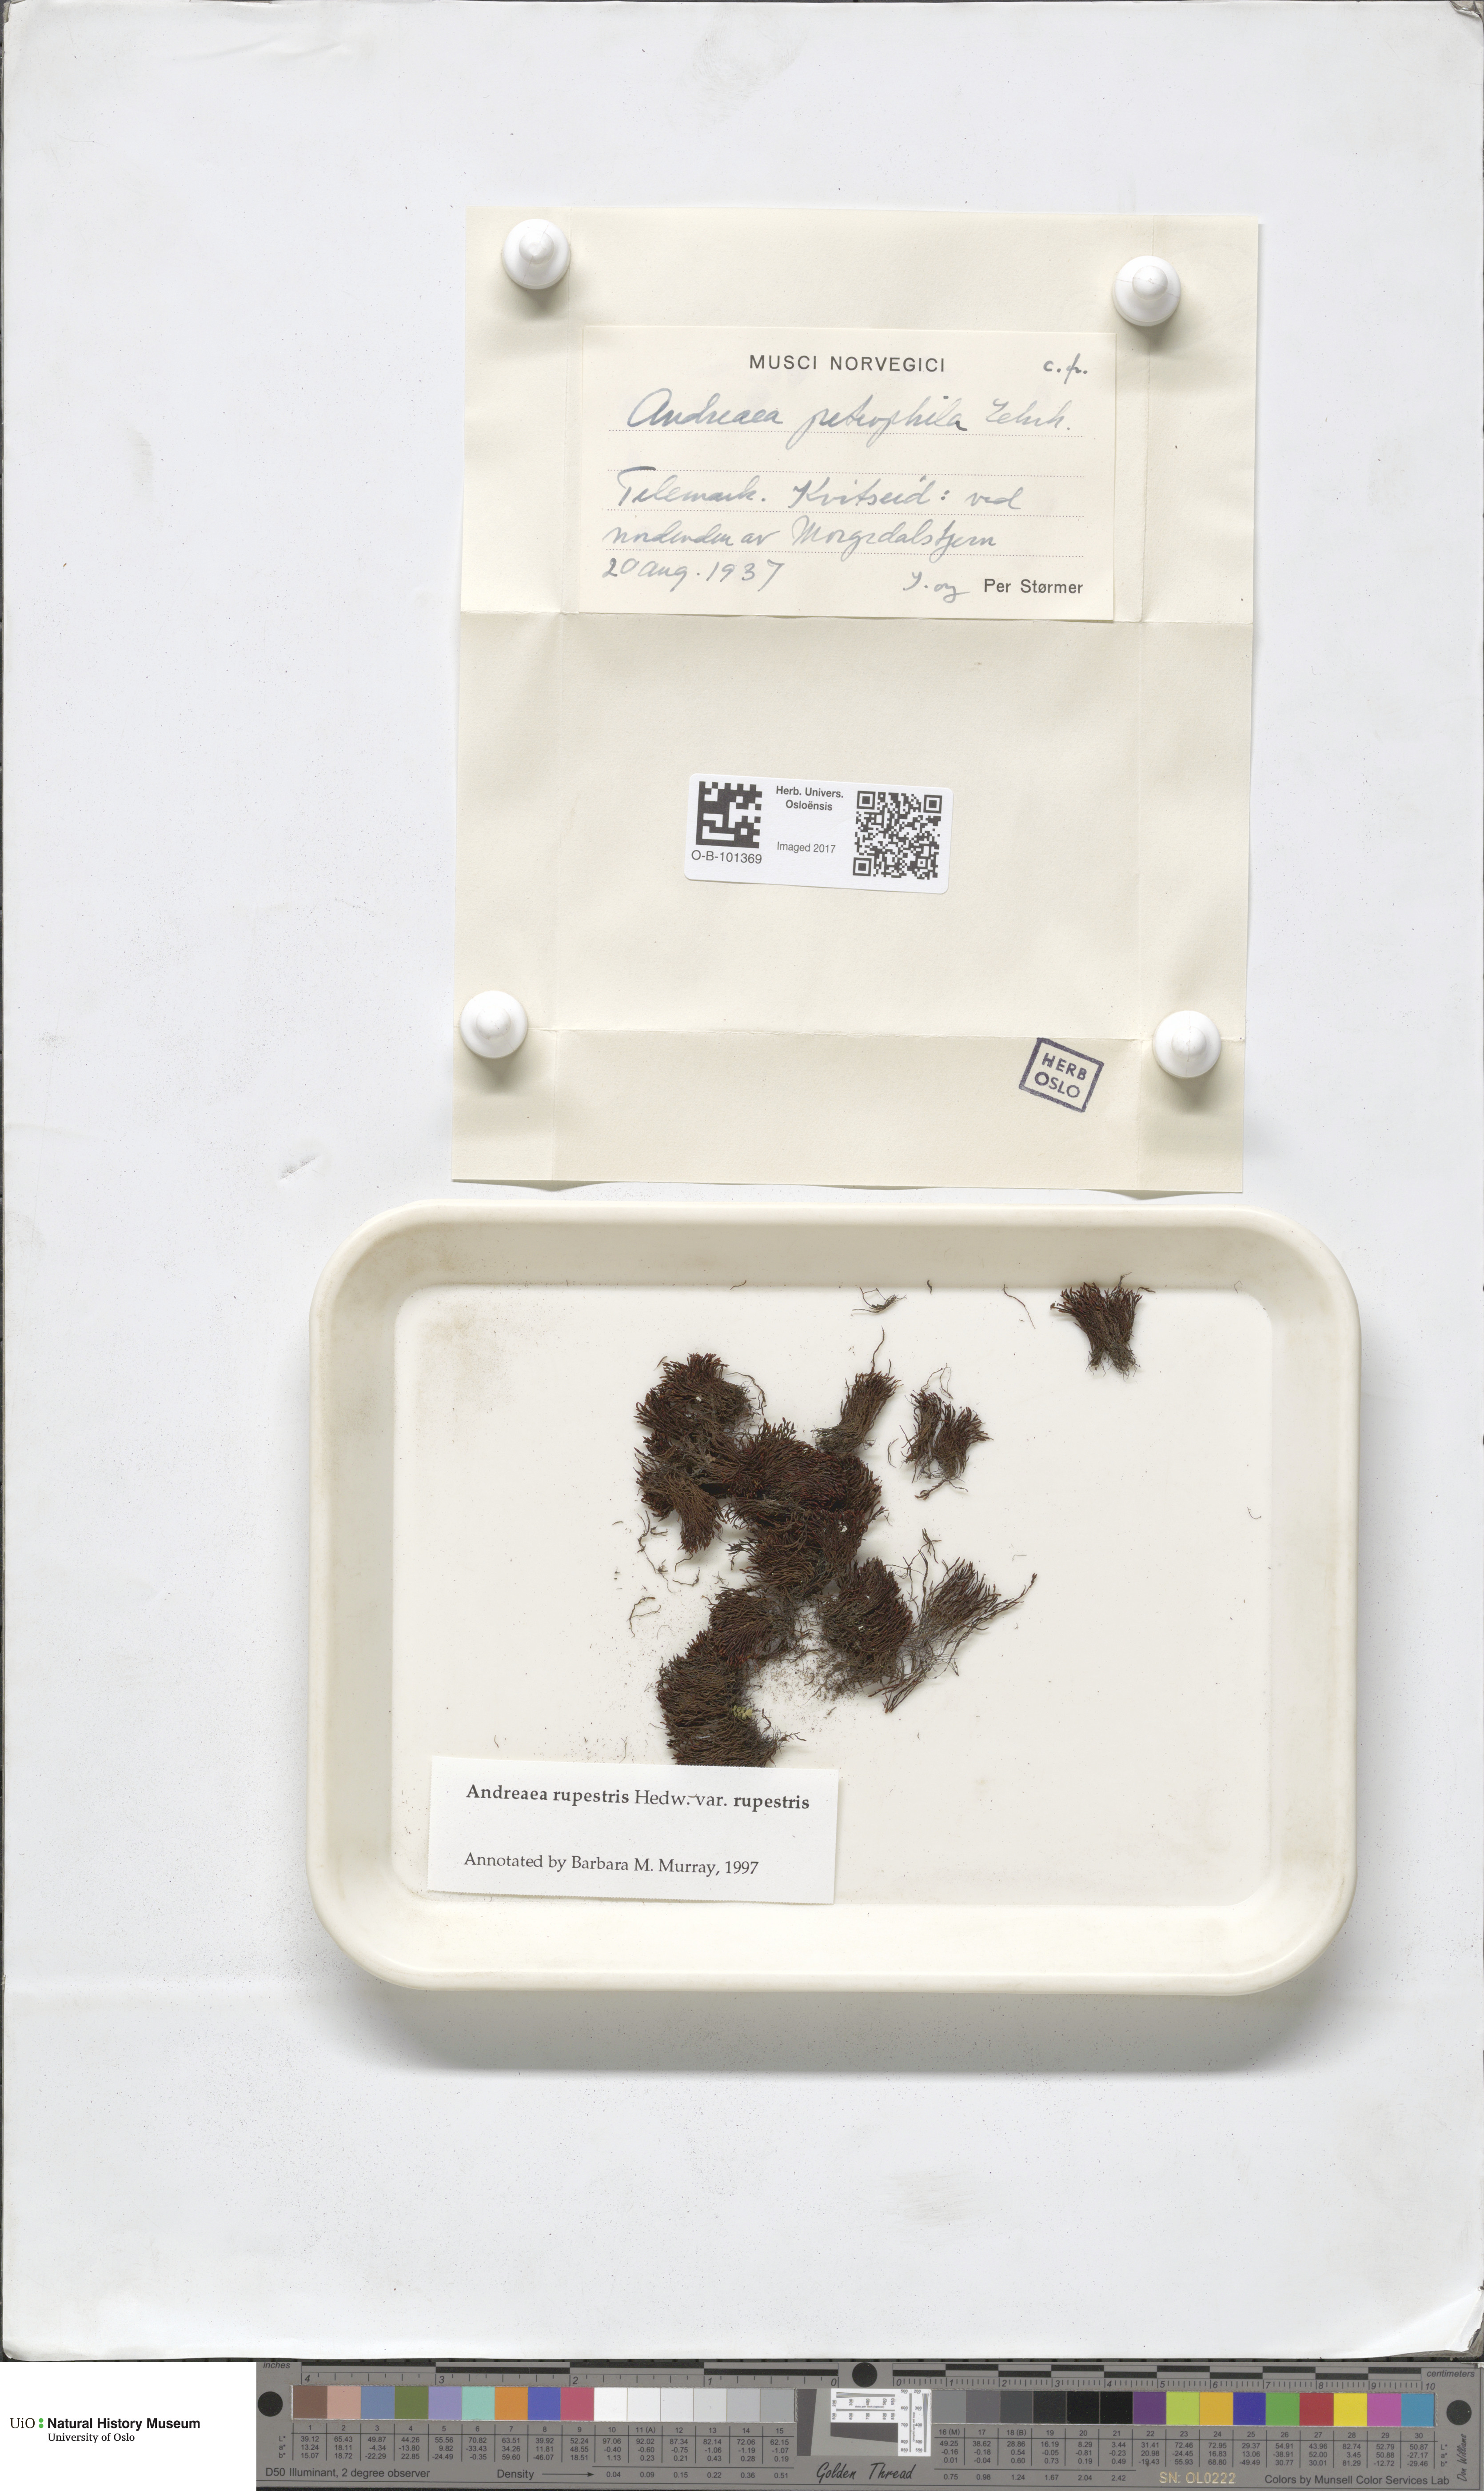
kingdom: Plantae
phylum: Bryophyta
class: Andreaeopsida
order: Andreaeales
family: Andreaeaceae
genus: Andreaea
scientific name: Andreaea rupestris
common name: Black rock moss
